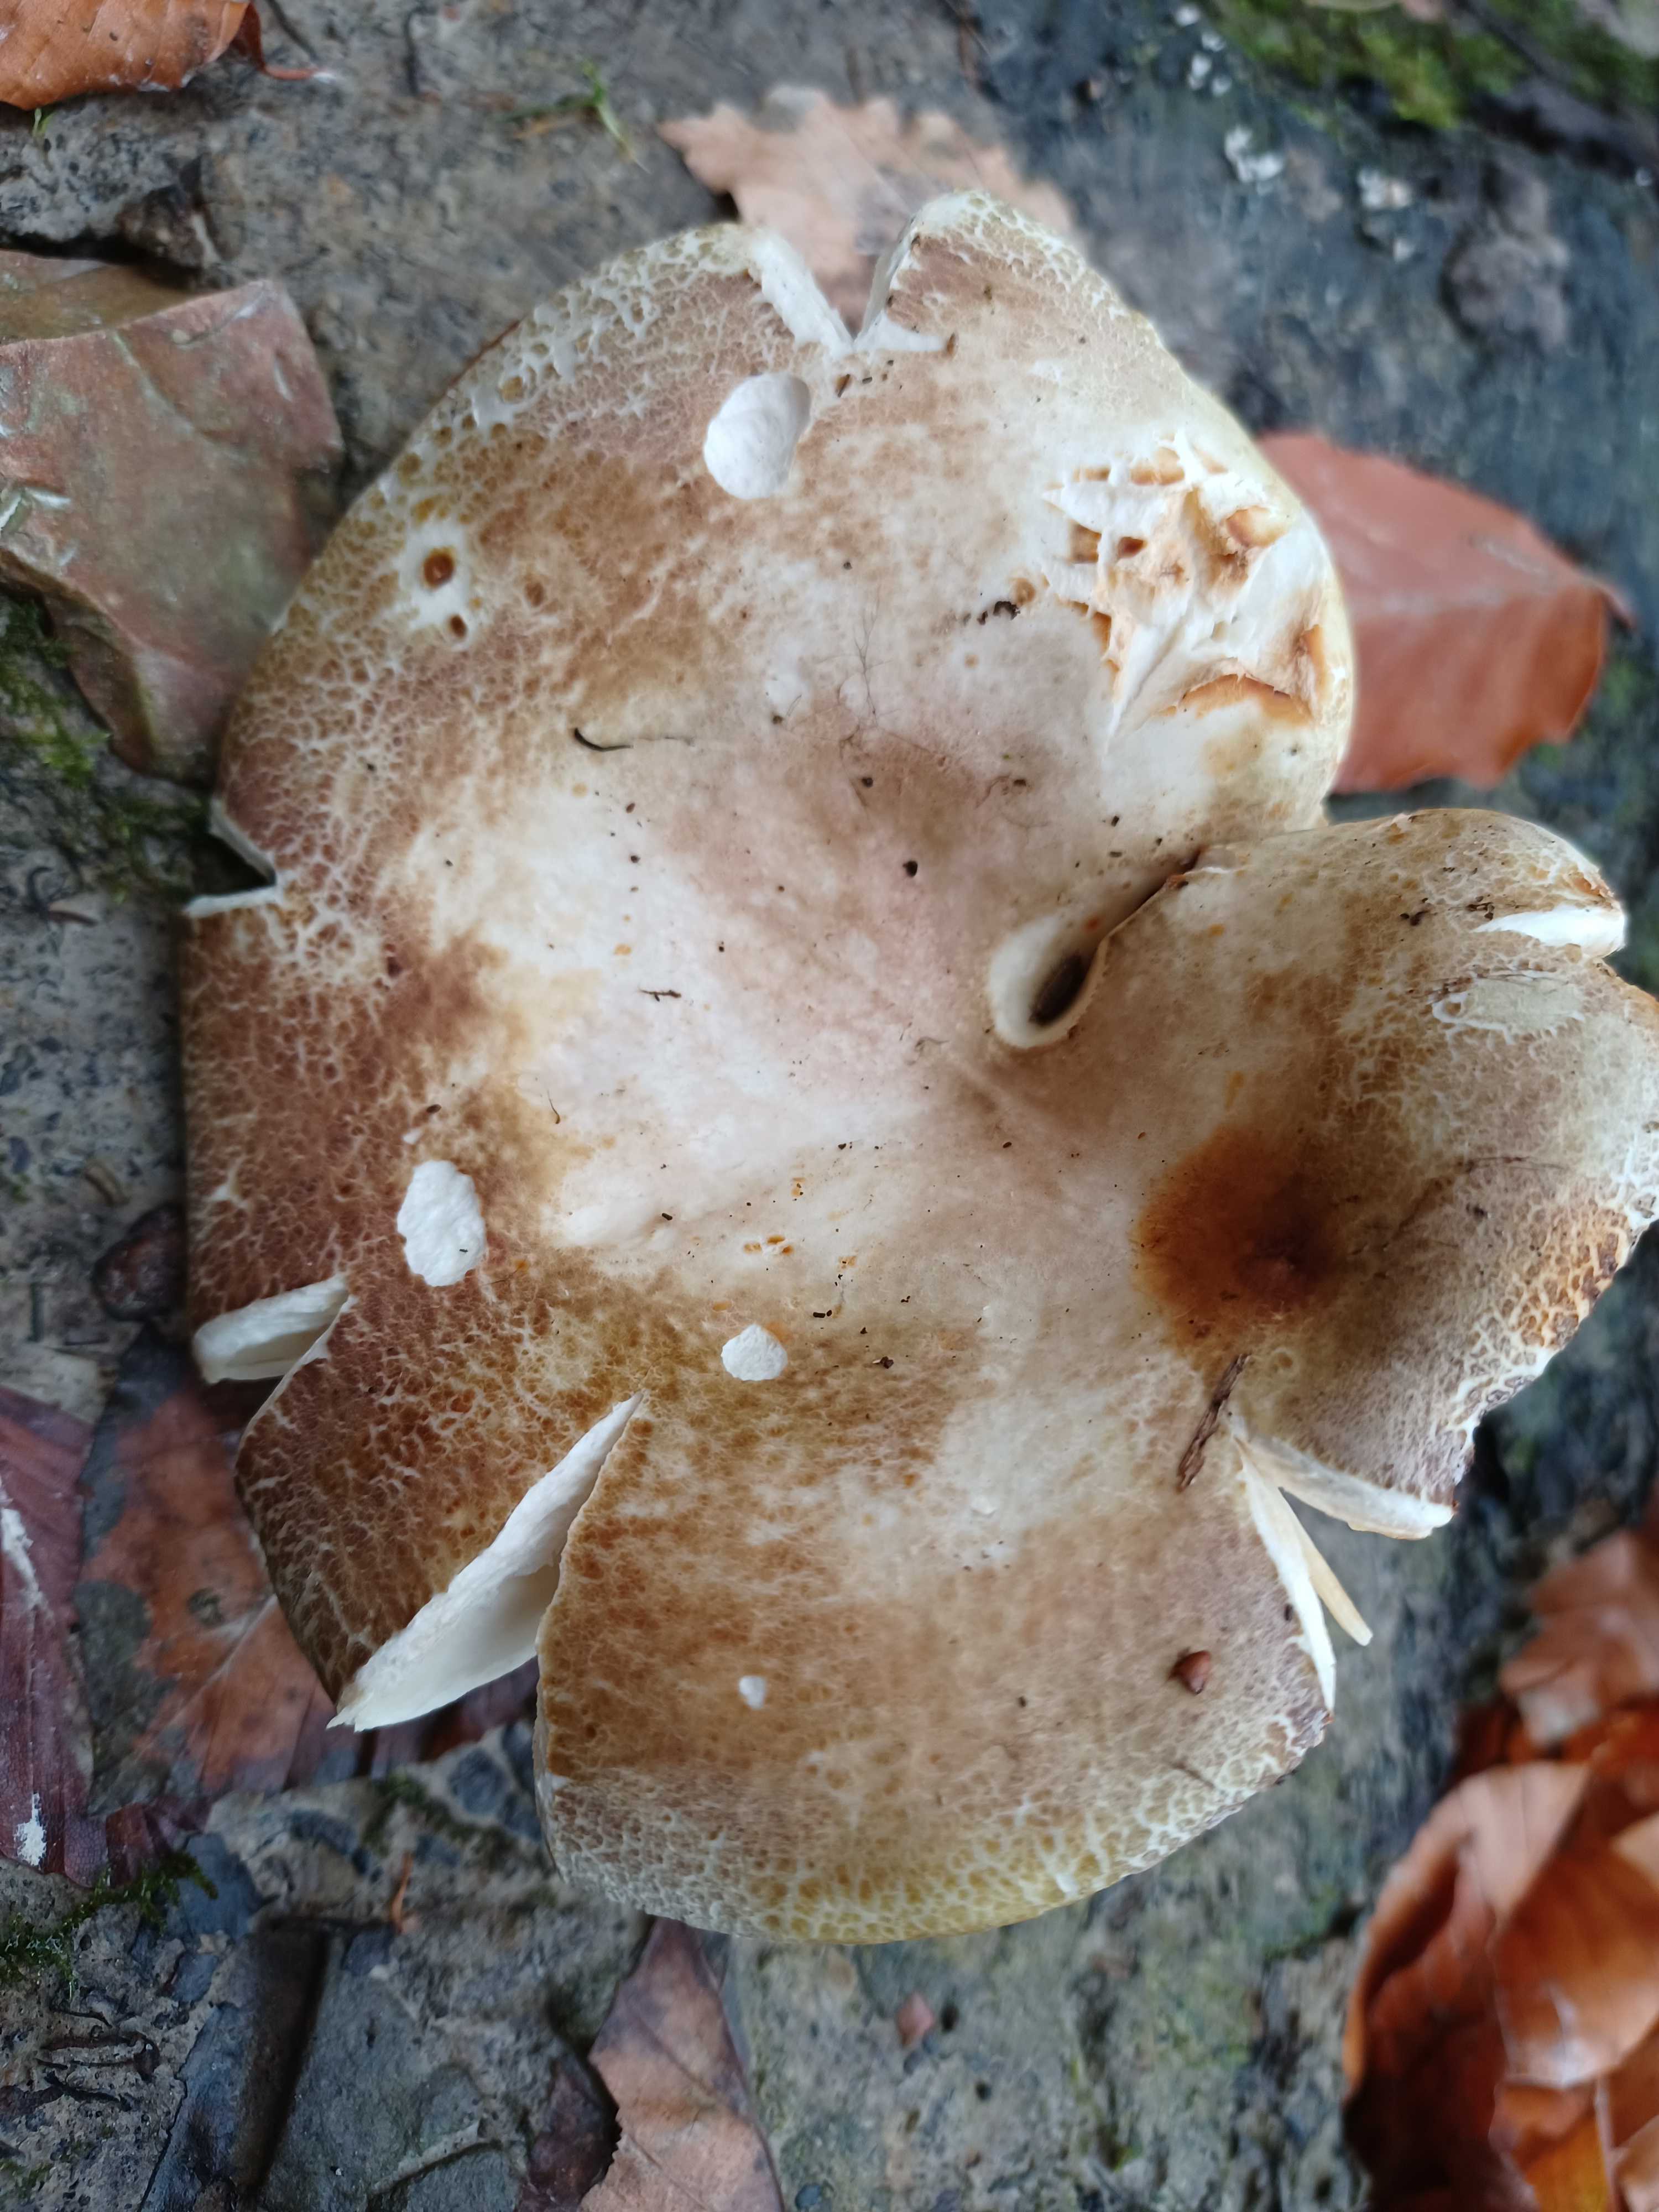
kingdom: Fungi
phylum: Basidiomycota
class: Agaricomycetes
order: Russulales
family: Russulaceae
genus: Russula
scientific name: Russula olivacea
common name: stor skørhat
